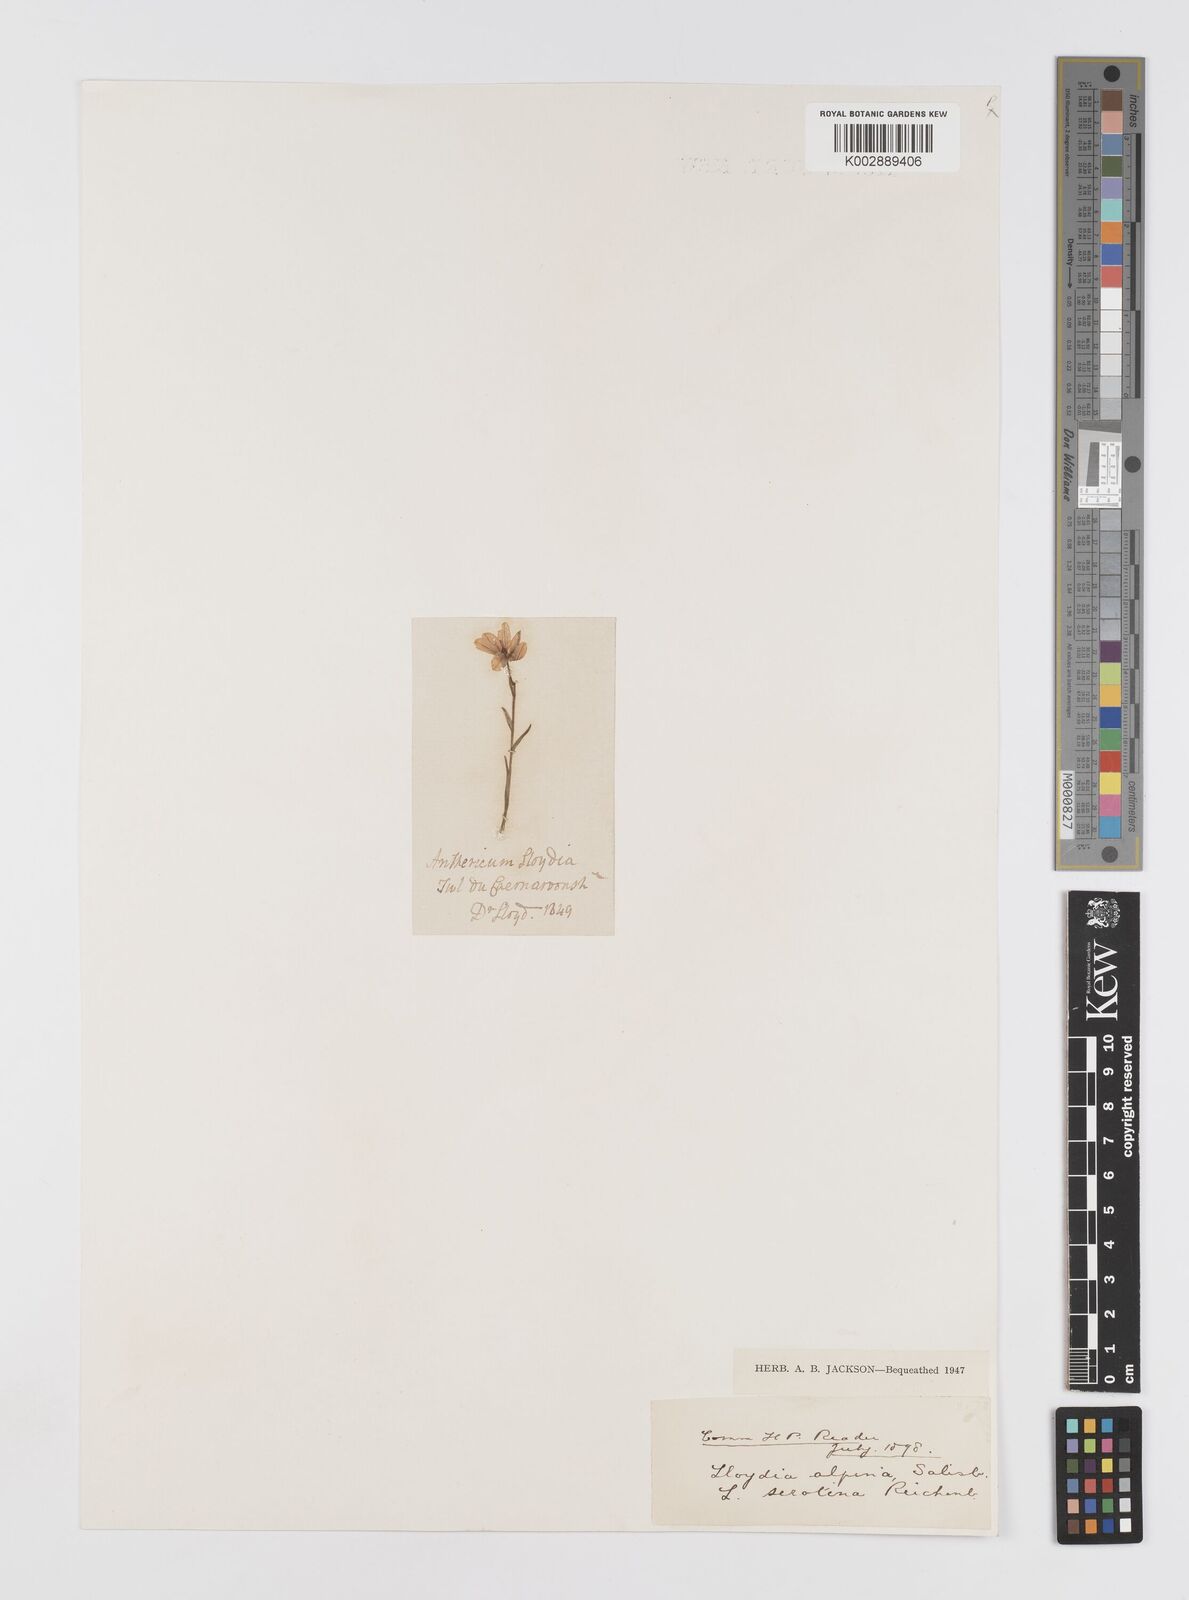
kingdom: Plantae
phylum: Tracheophyta
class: Liliopsida
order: Liliales
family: Liliaceae
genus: Gagea
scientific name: Gagea
